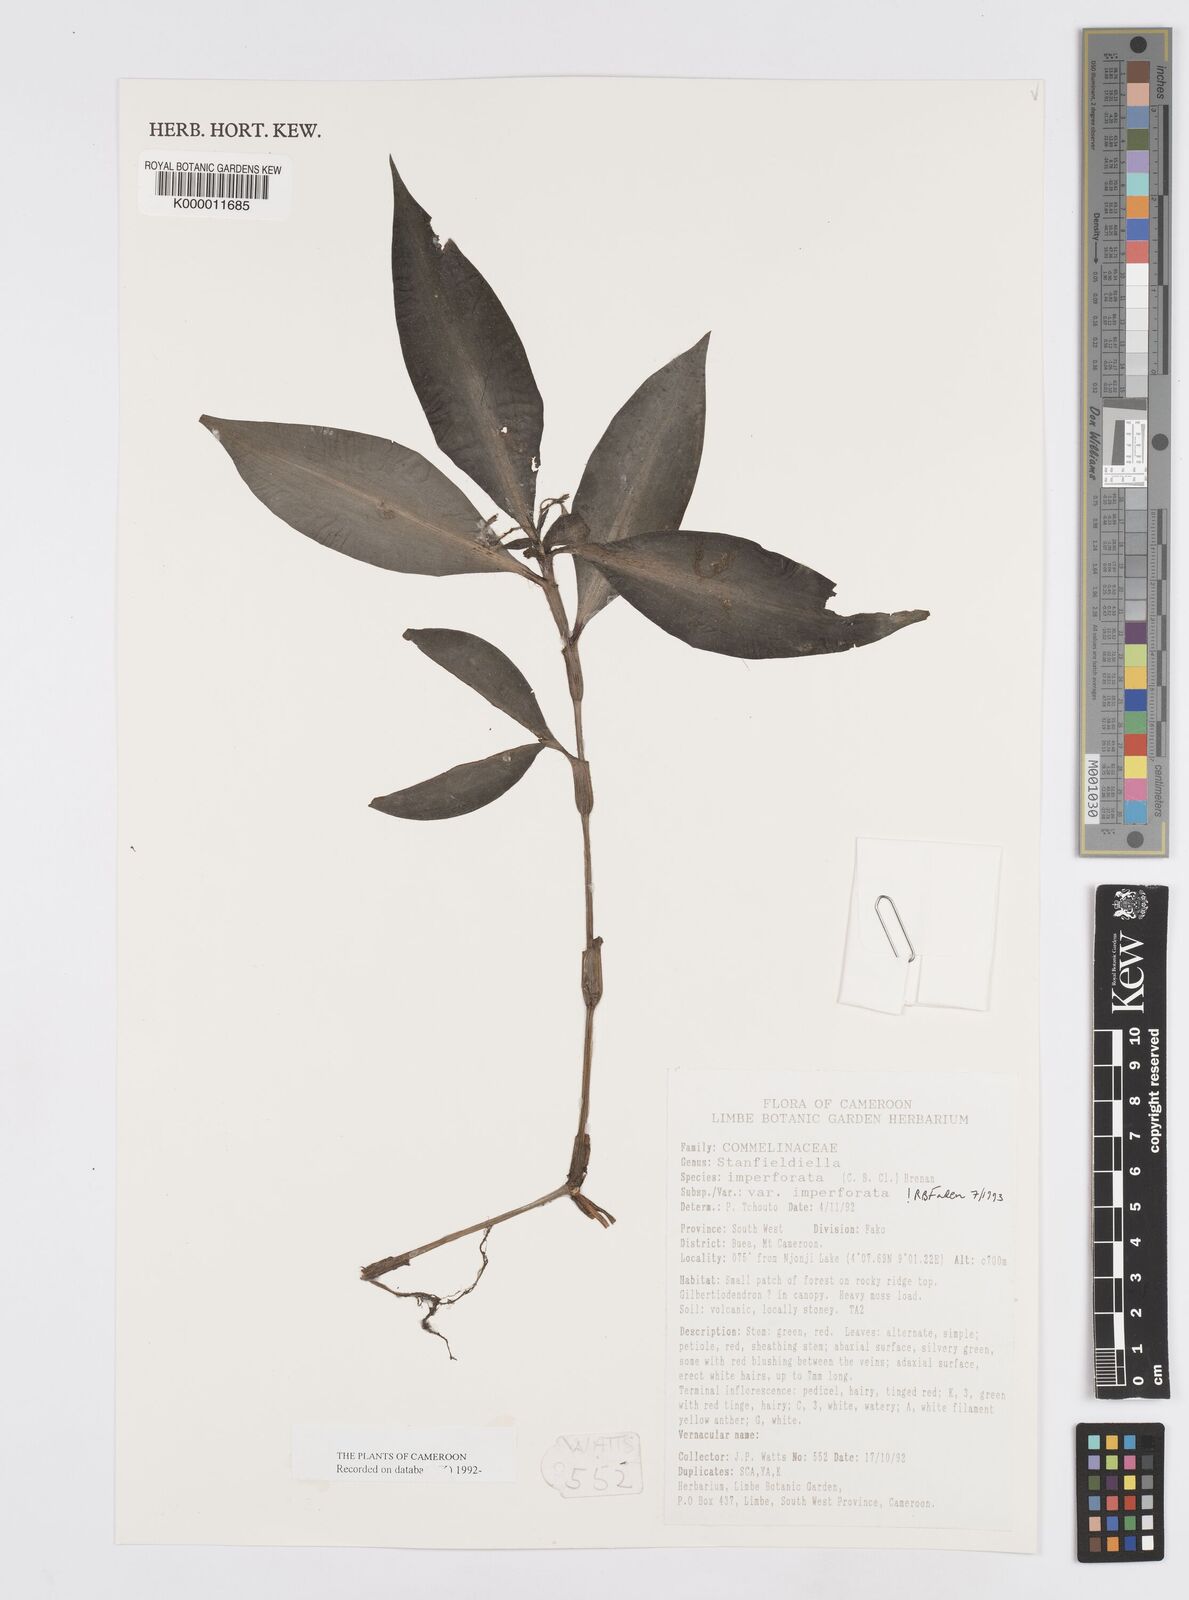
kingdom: Plantae
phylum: Tracheophyta
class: Liliopsida
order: Commelinales
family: Commelinaceae
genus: Stanfieldiella
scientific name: Stanfieldiella imperforata
